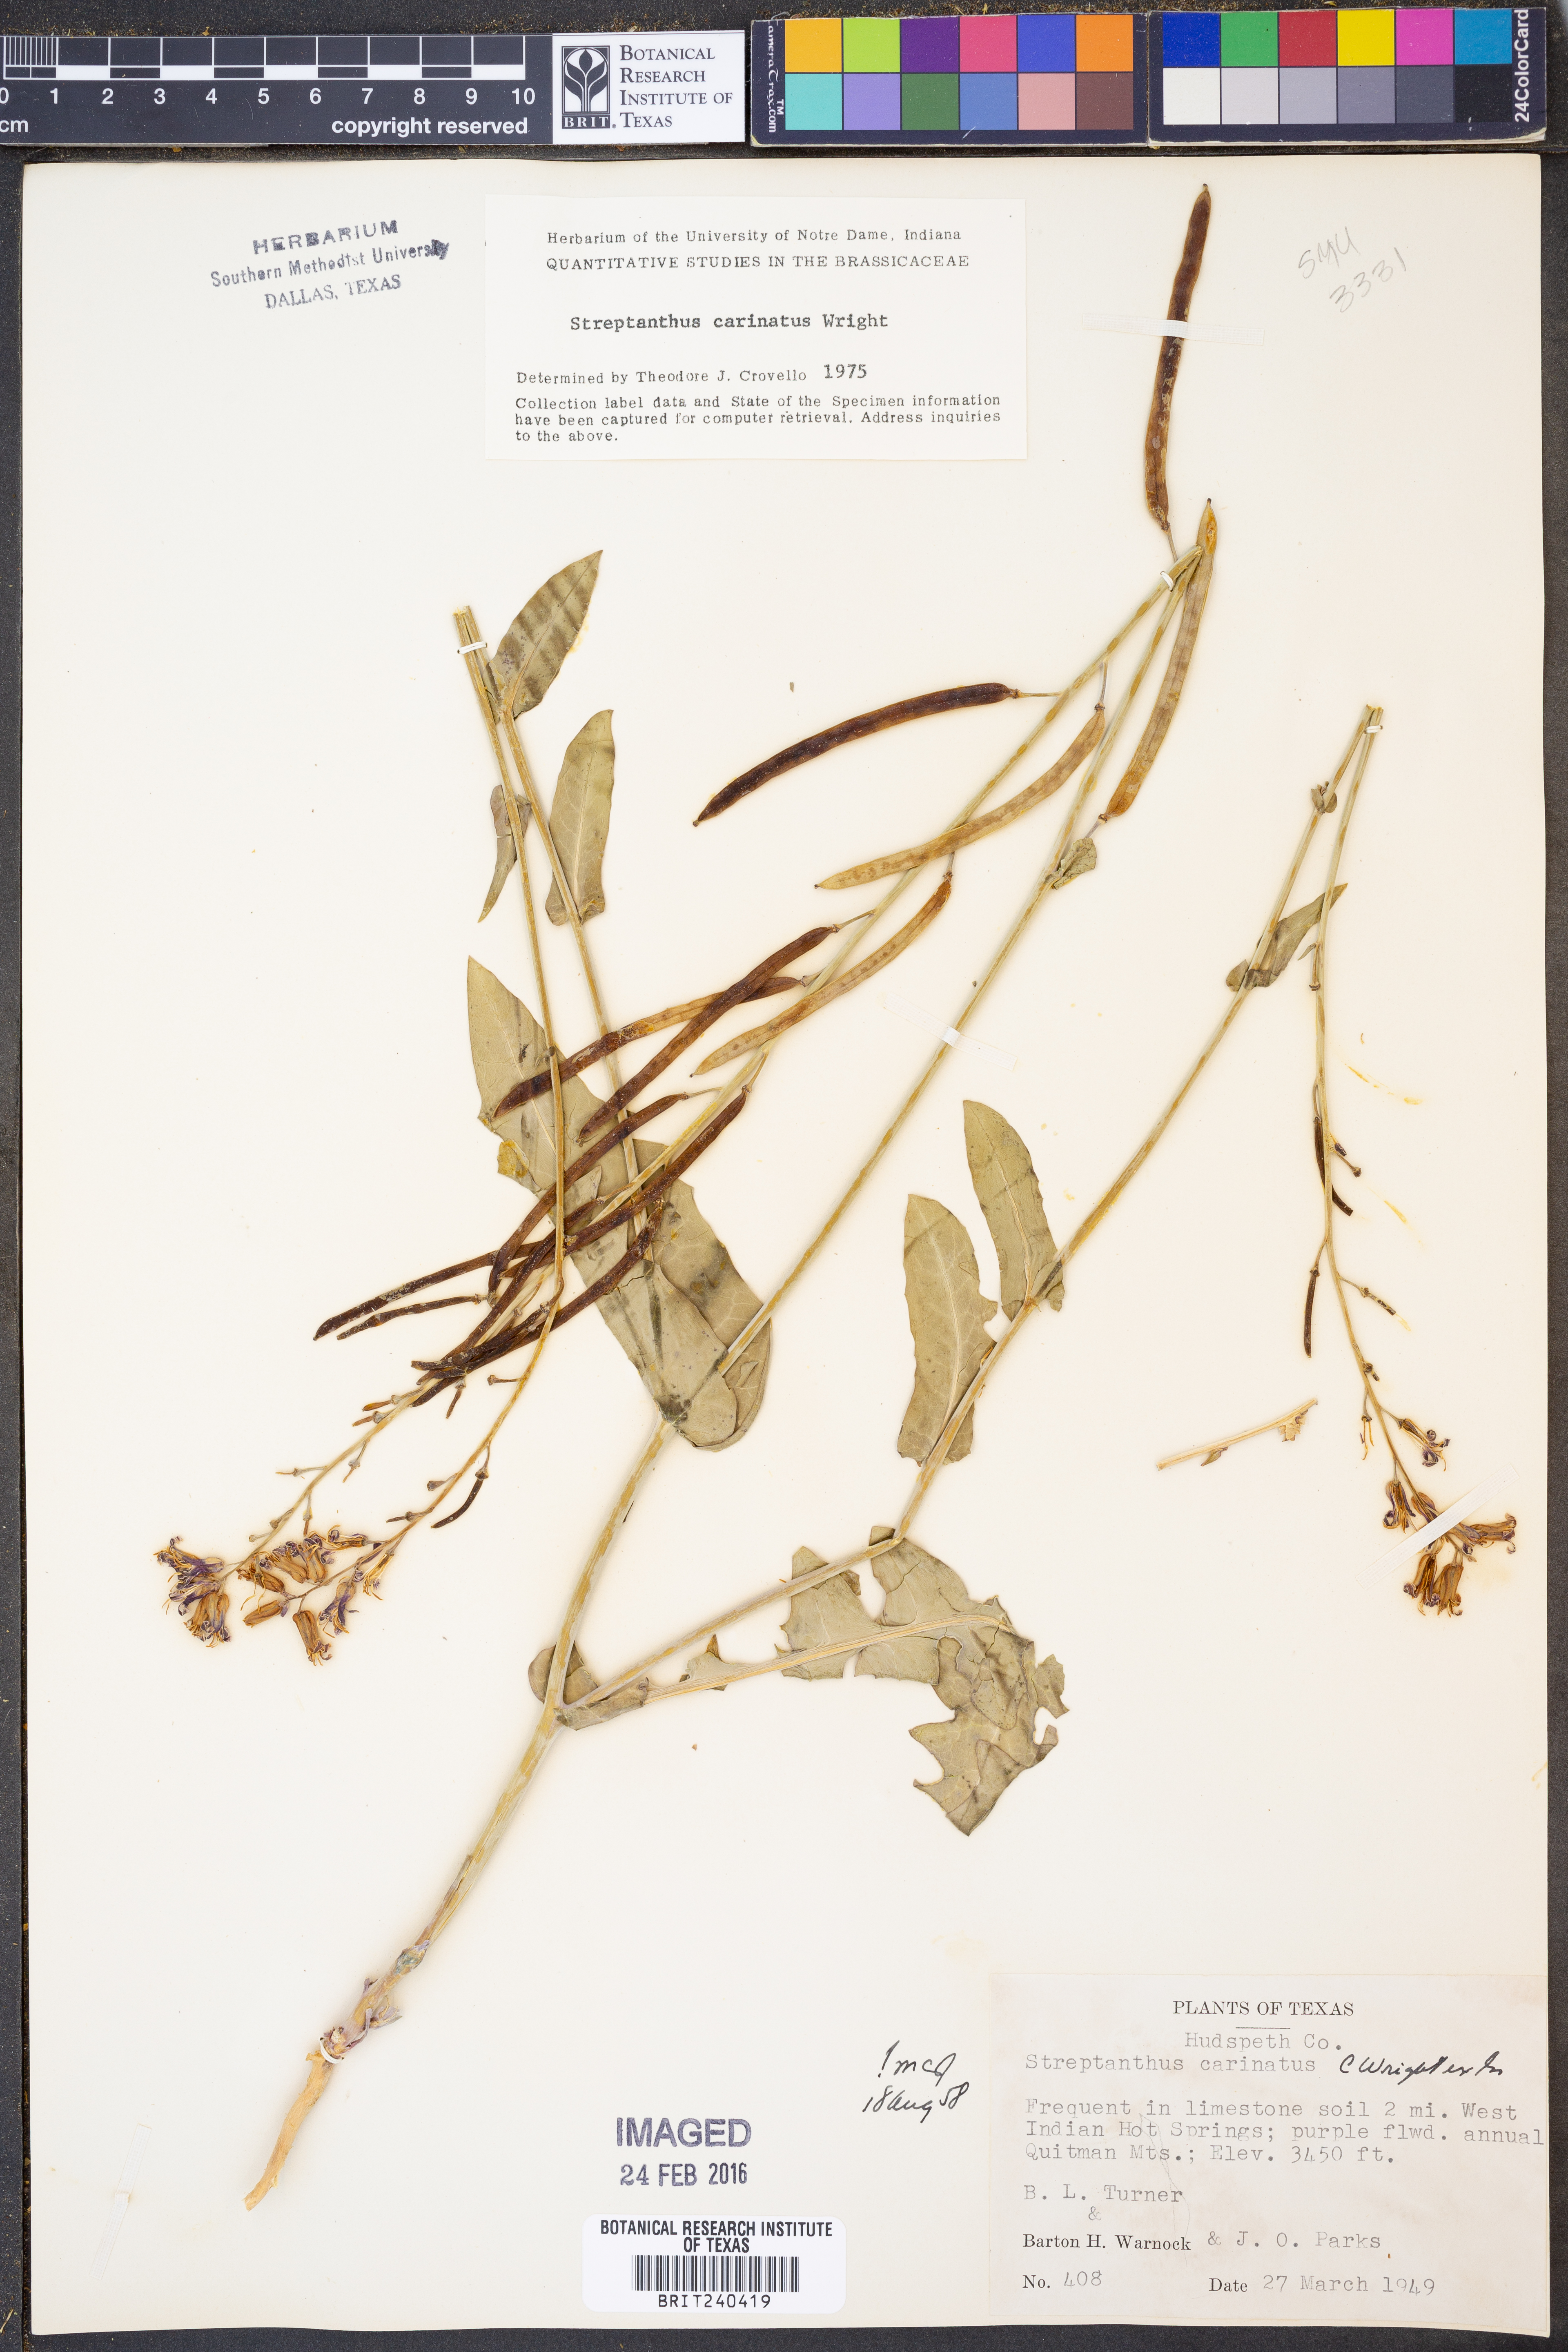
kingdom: Plantae
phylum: Tracheophyta
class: Magnoliopsida
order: Brassicales
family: Brassicaceae
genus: Streptanthus
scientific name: Streptanthus carinatus
